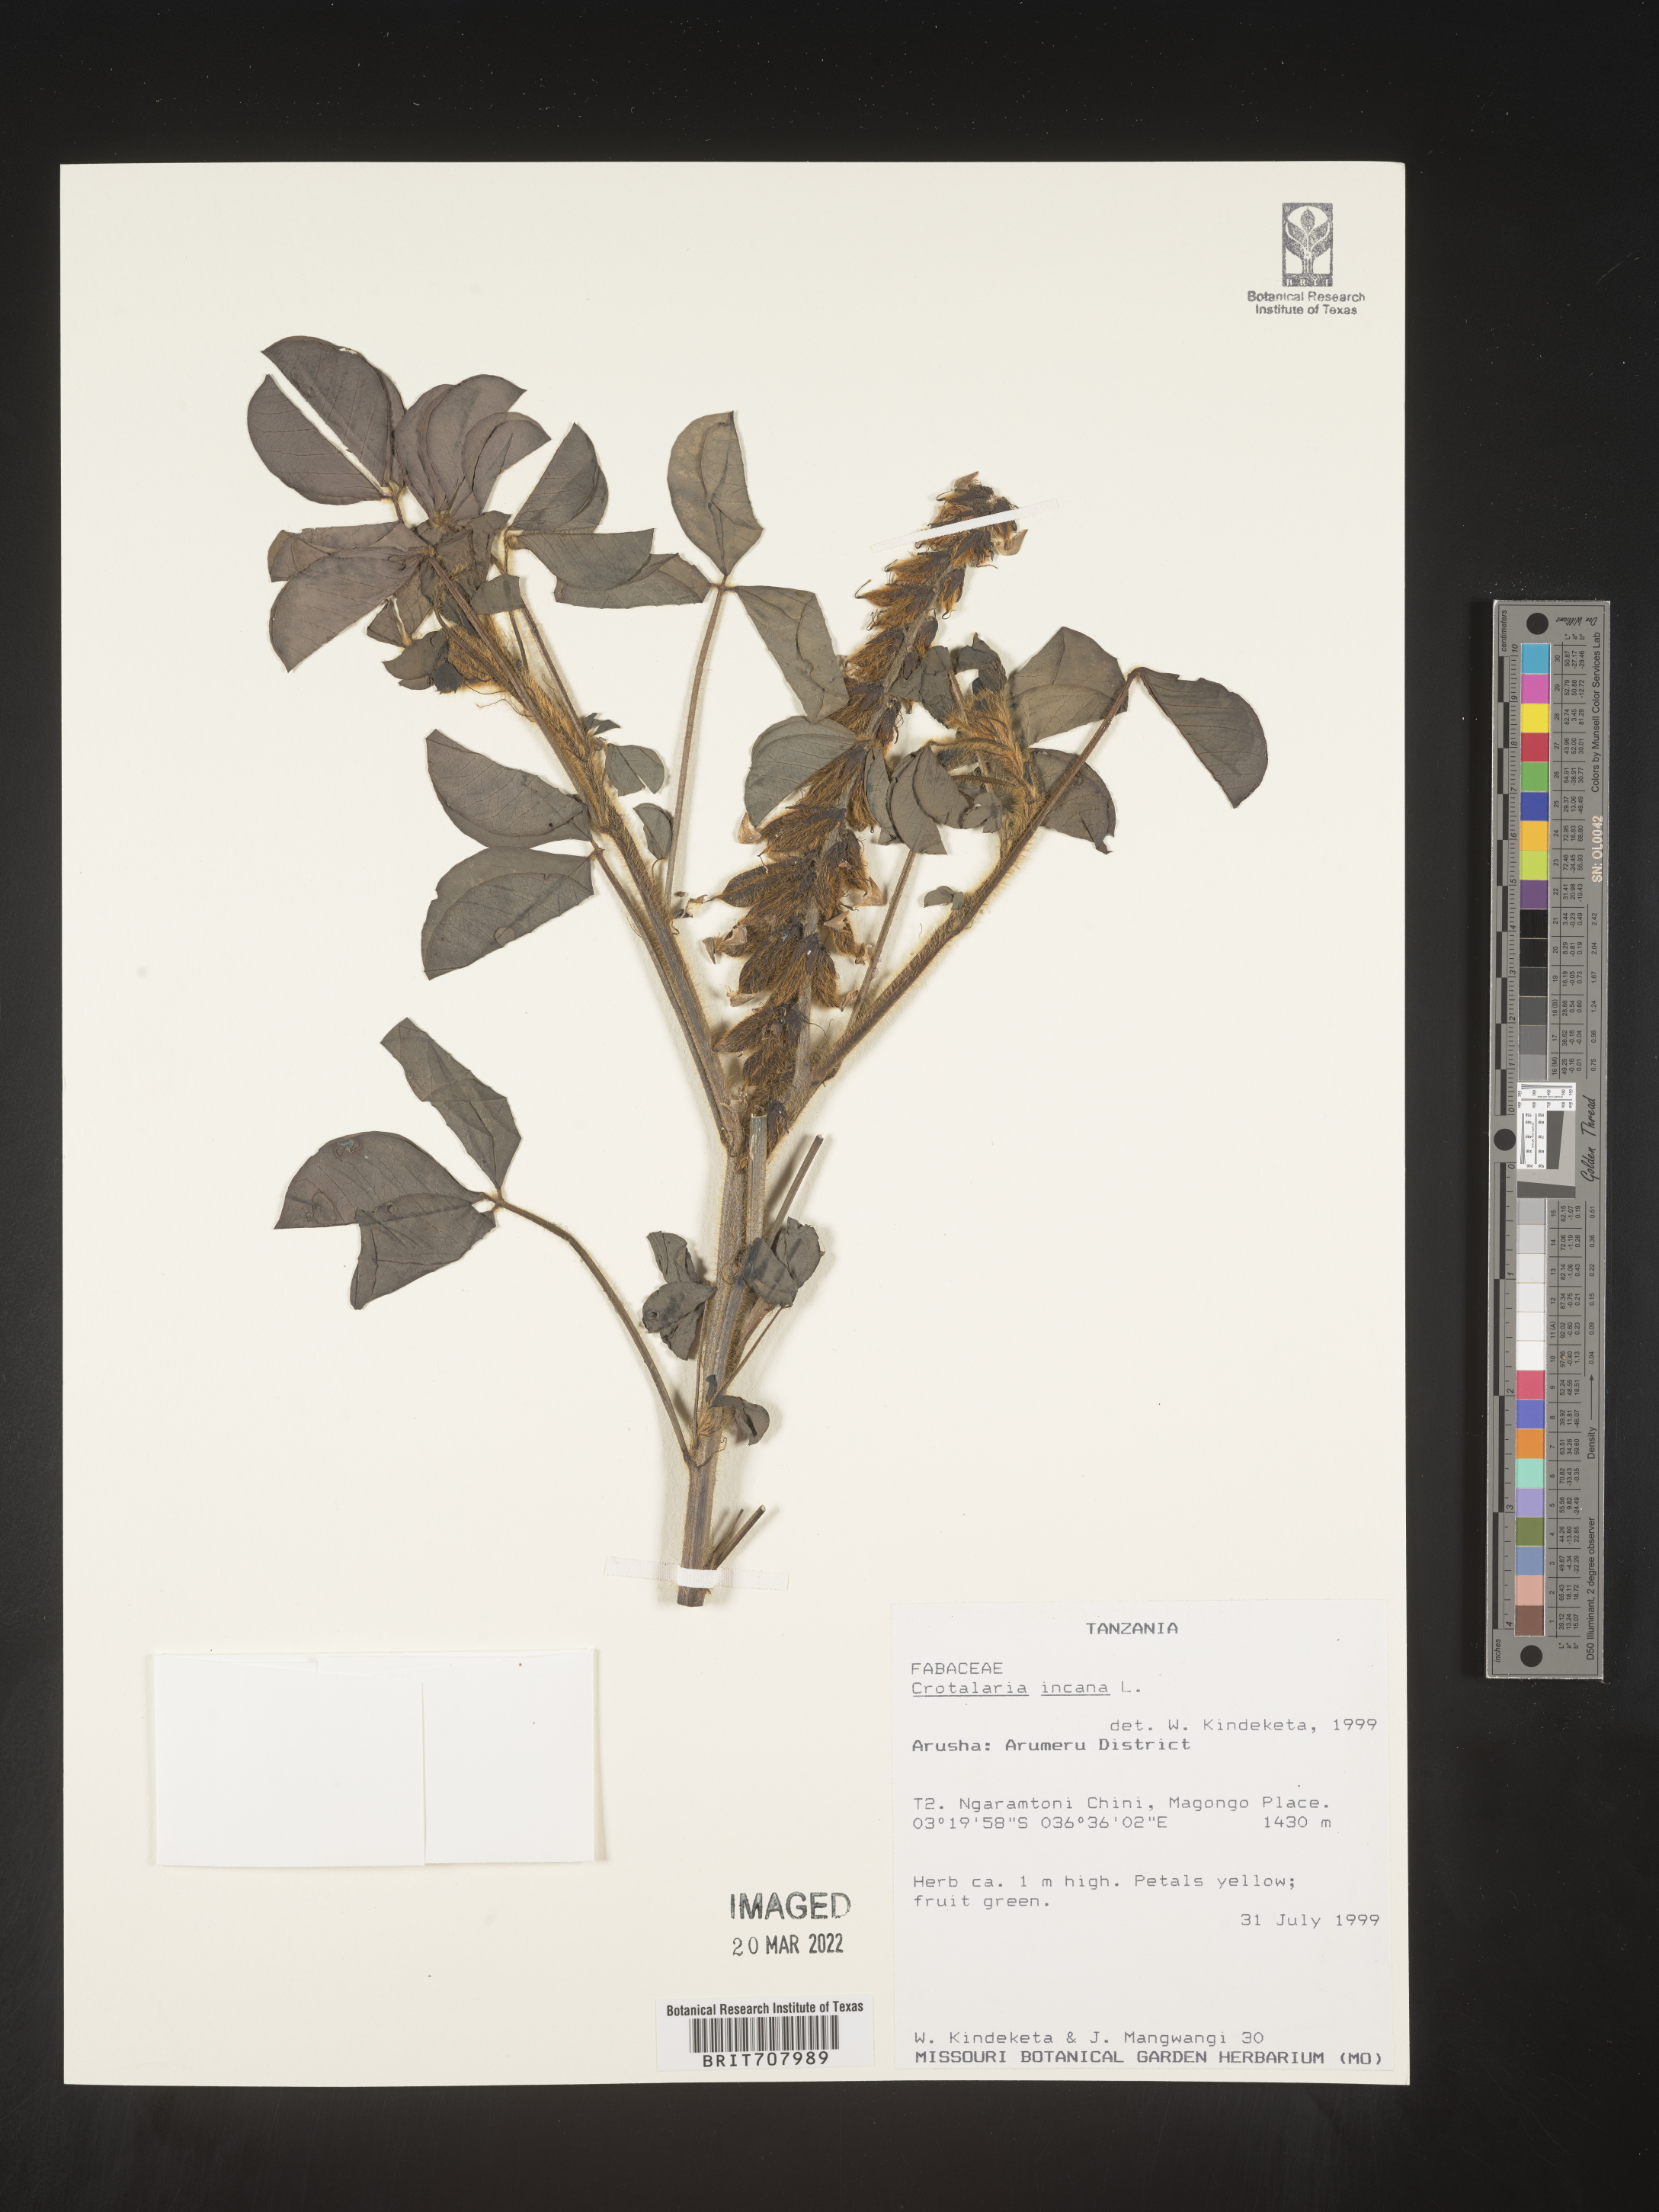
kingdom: Plantae
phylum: Tracheophyta
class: Magnoliopsida
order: Fabales
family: Fabaceae
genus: Crotalaria
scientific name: Crotalaria
